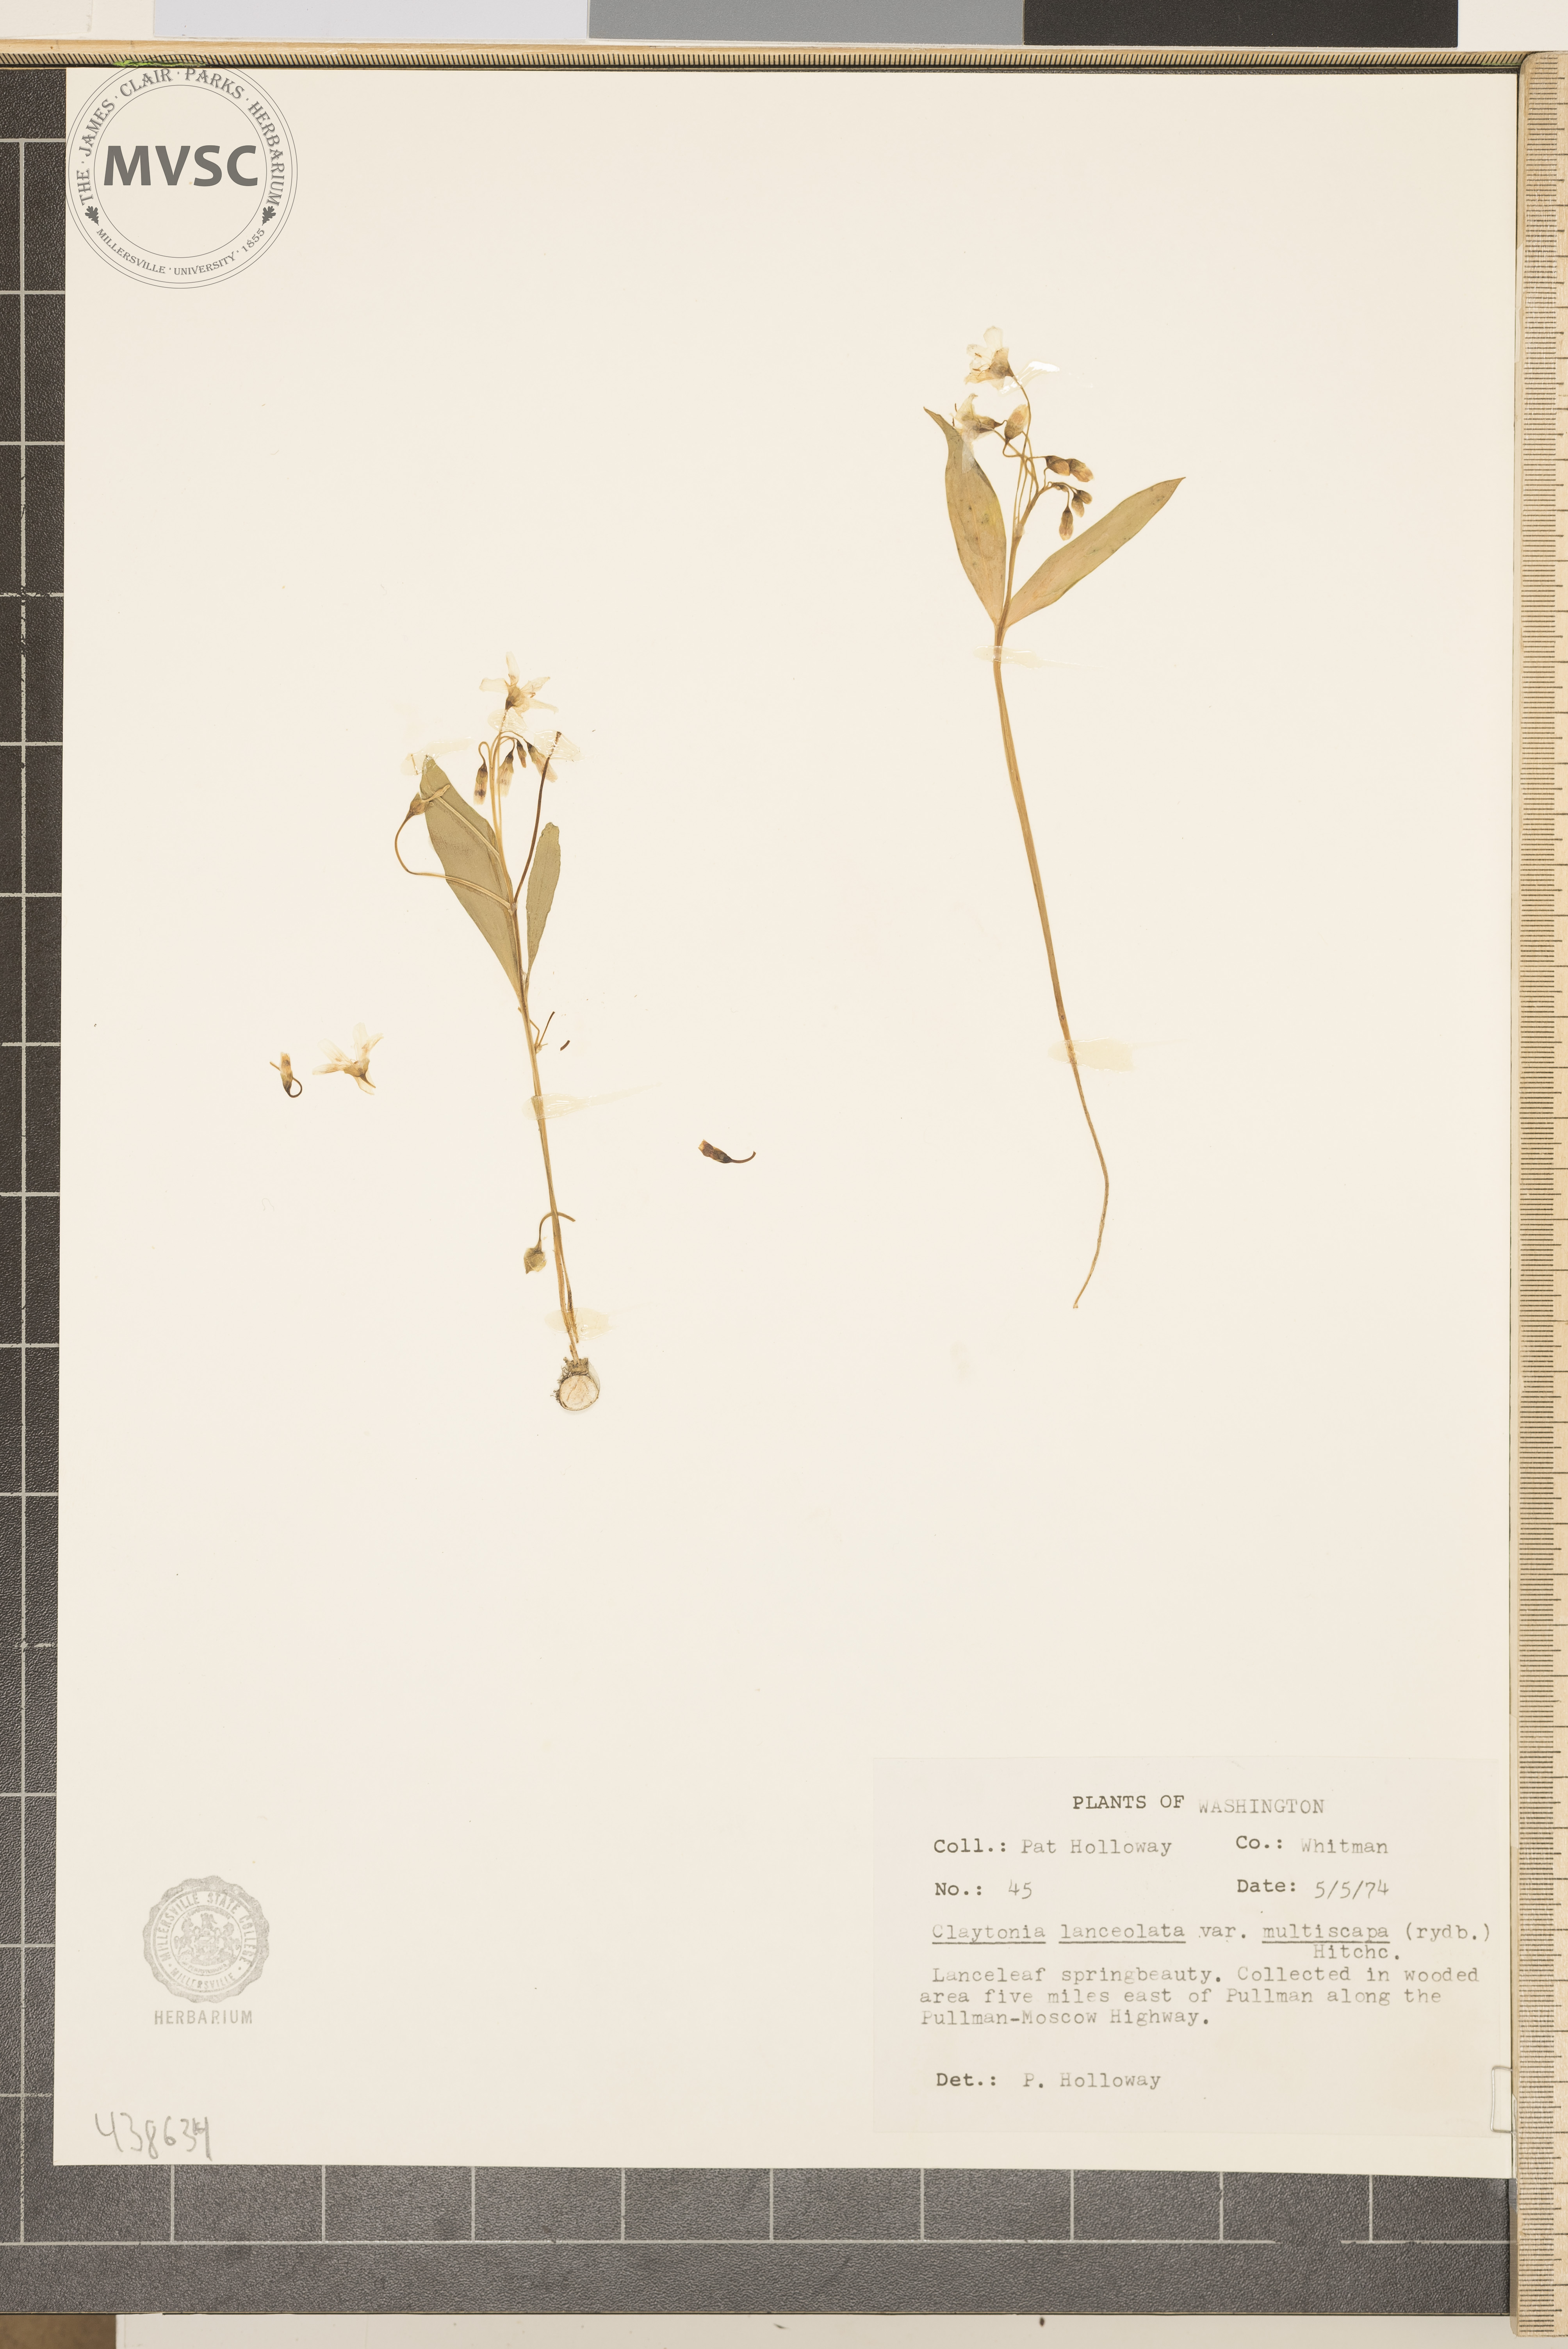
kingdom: Plantae
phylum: Tracheophyta
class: Magnoliopsida
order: Caryophyllales
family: Montiaceae
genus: Claytonia
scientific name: Claytonia lanceolata
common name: Western spring-beauty
